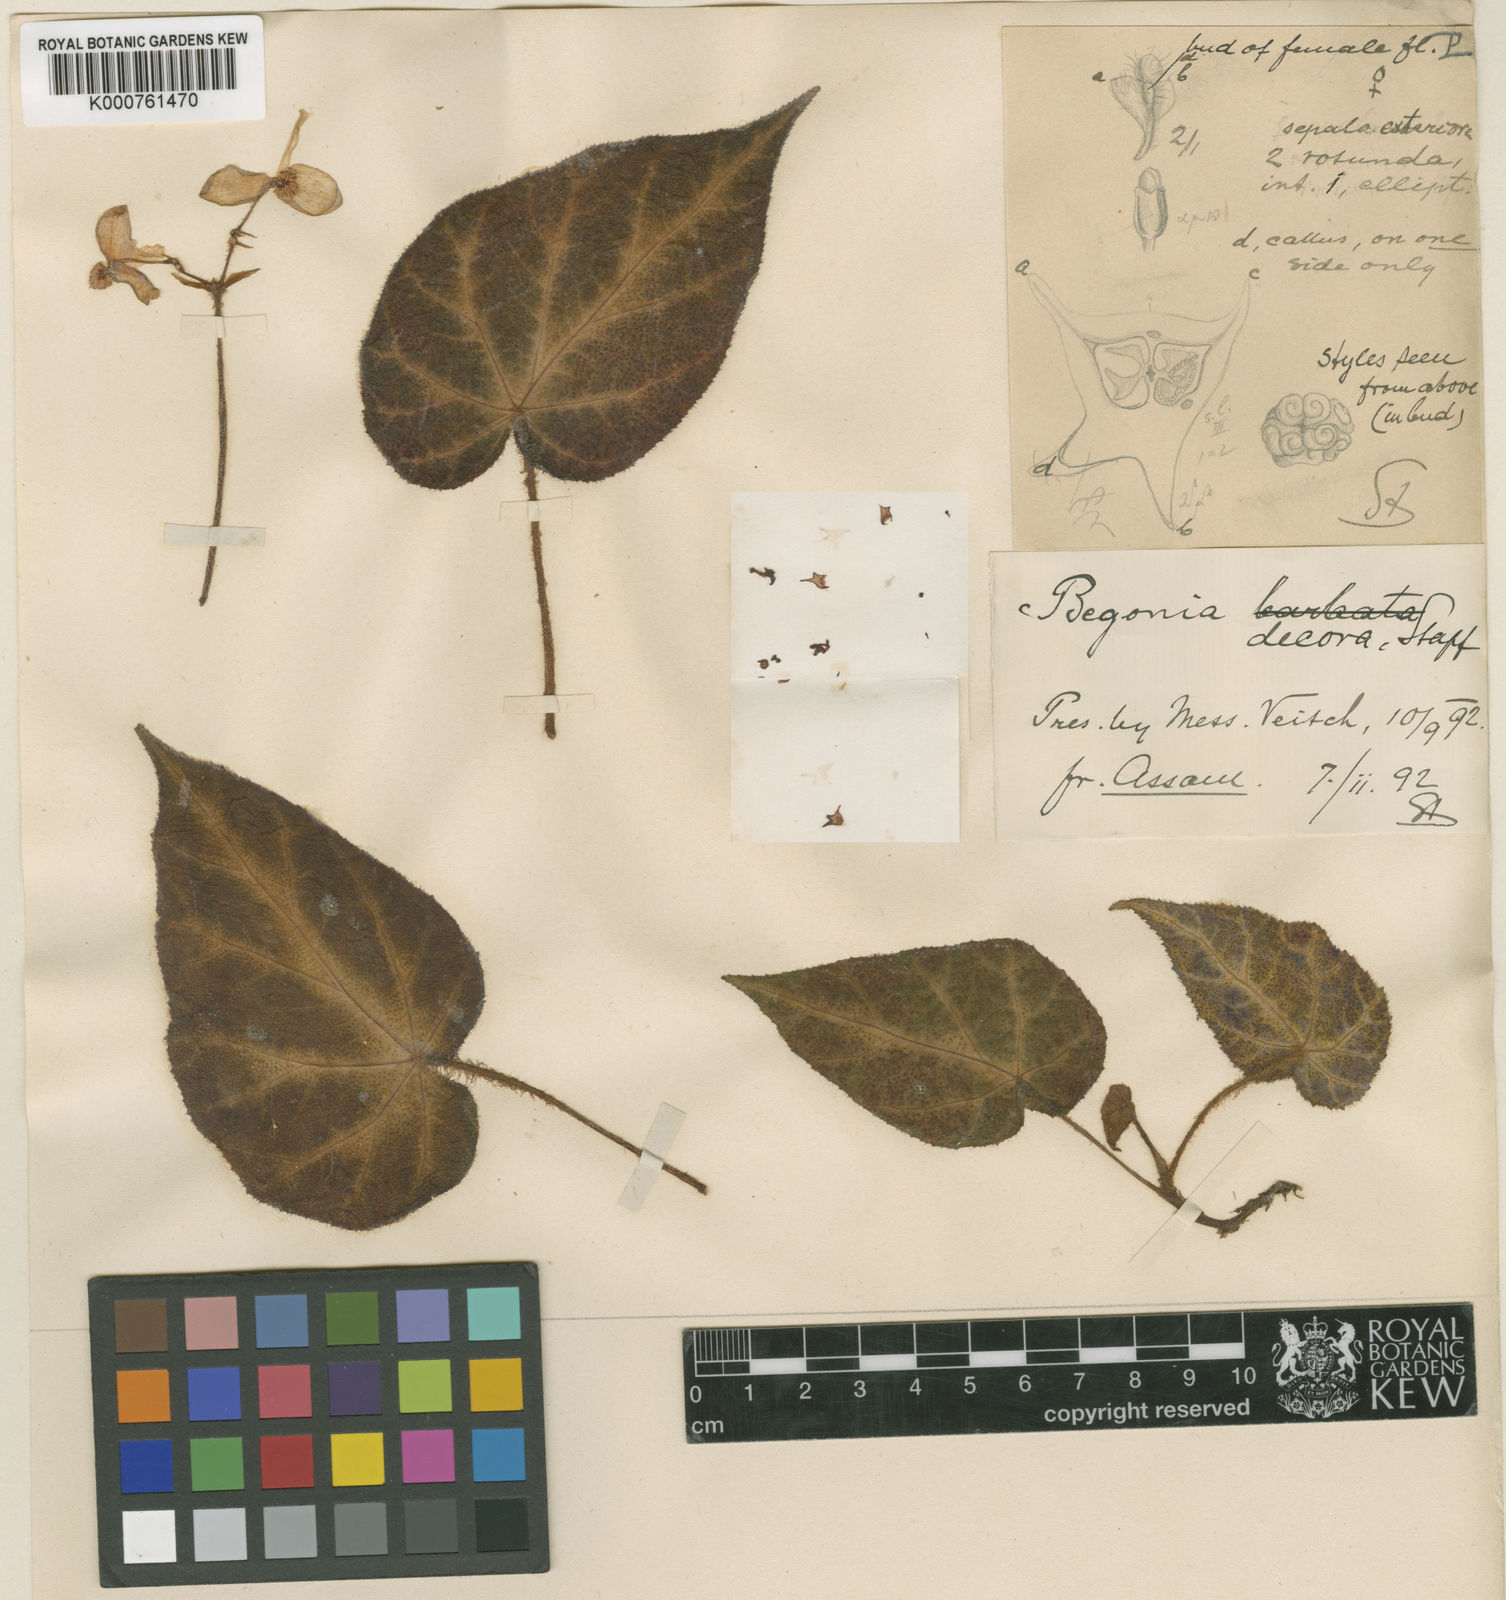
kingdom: Plantae
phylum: Tracheophyta
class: Magnoliopsida
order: Cucurbitales
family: Begoniaceae
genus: Begonia
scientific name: Begonia decora
